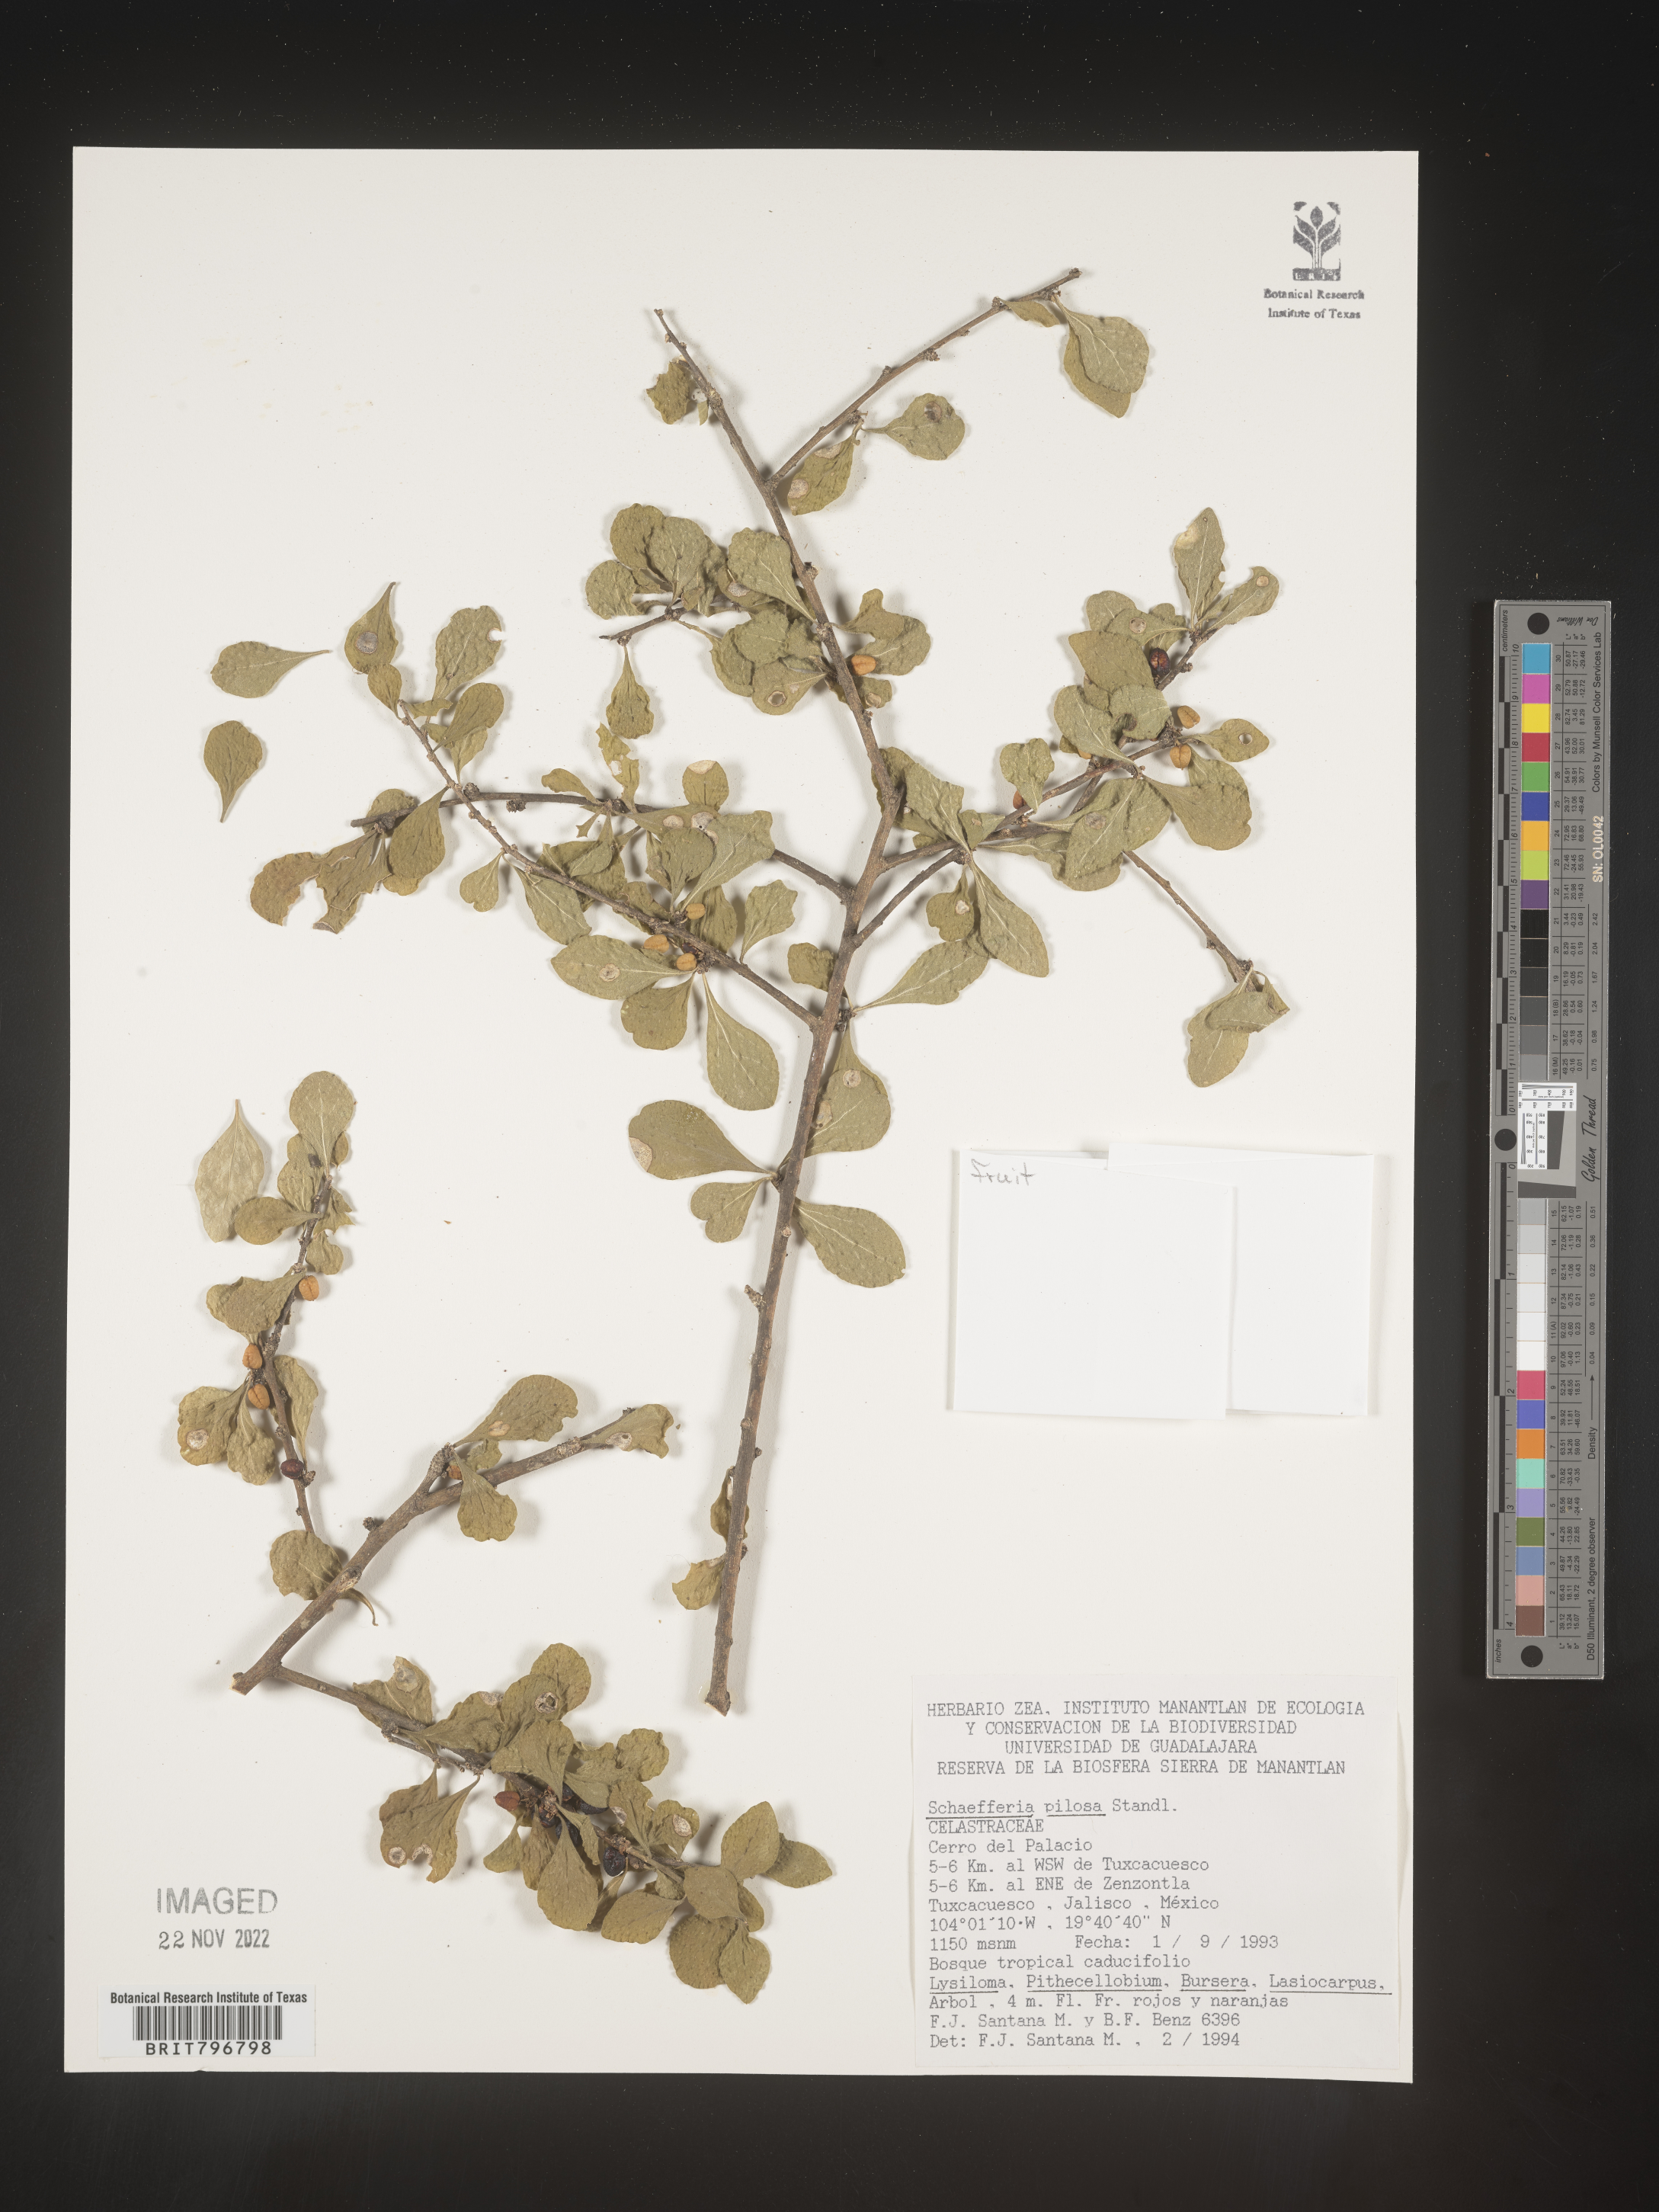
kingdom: Plantae
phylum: Tracheophyta
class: Magnoliopsida
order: Celastrales
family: Celastraceae
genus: Schaefferia
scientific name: Schaefferia
